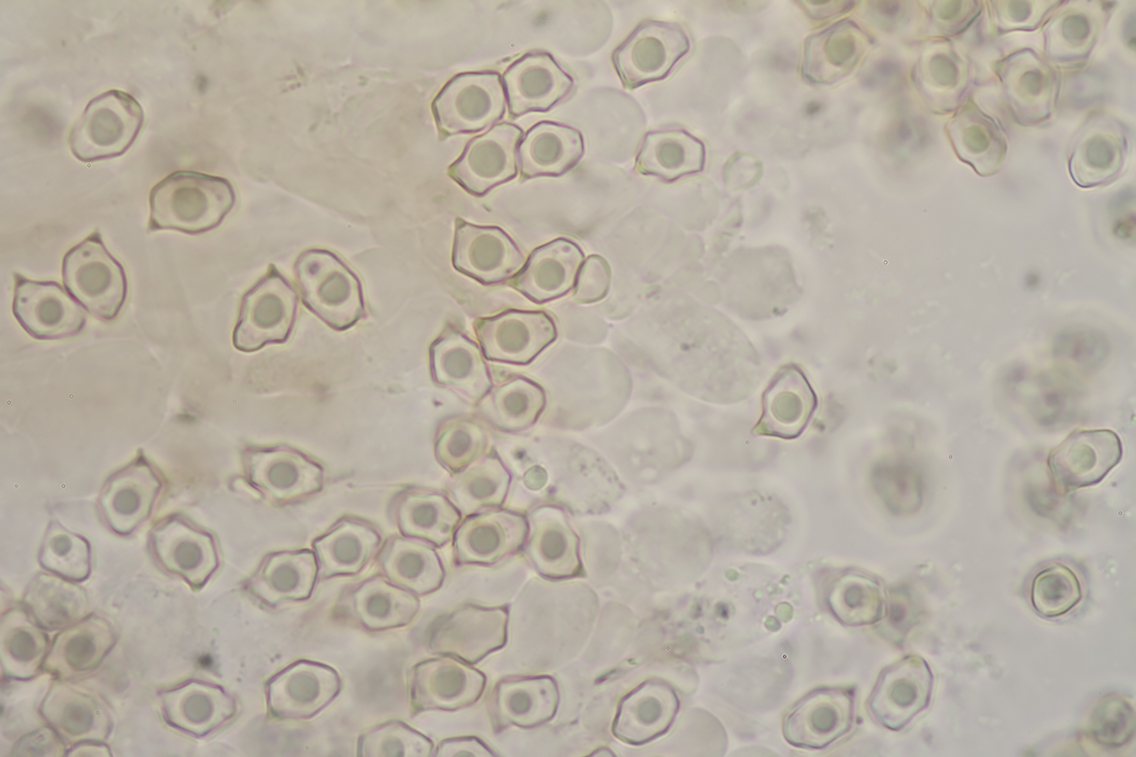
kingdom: Fungi
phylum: Basidiomycota
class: Agaricomycetes
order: Agaricales
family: Entolomataceae
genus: Entoloma
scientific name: Entoloma clandestinum
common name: tykbladet rødblad
